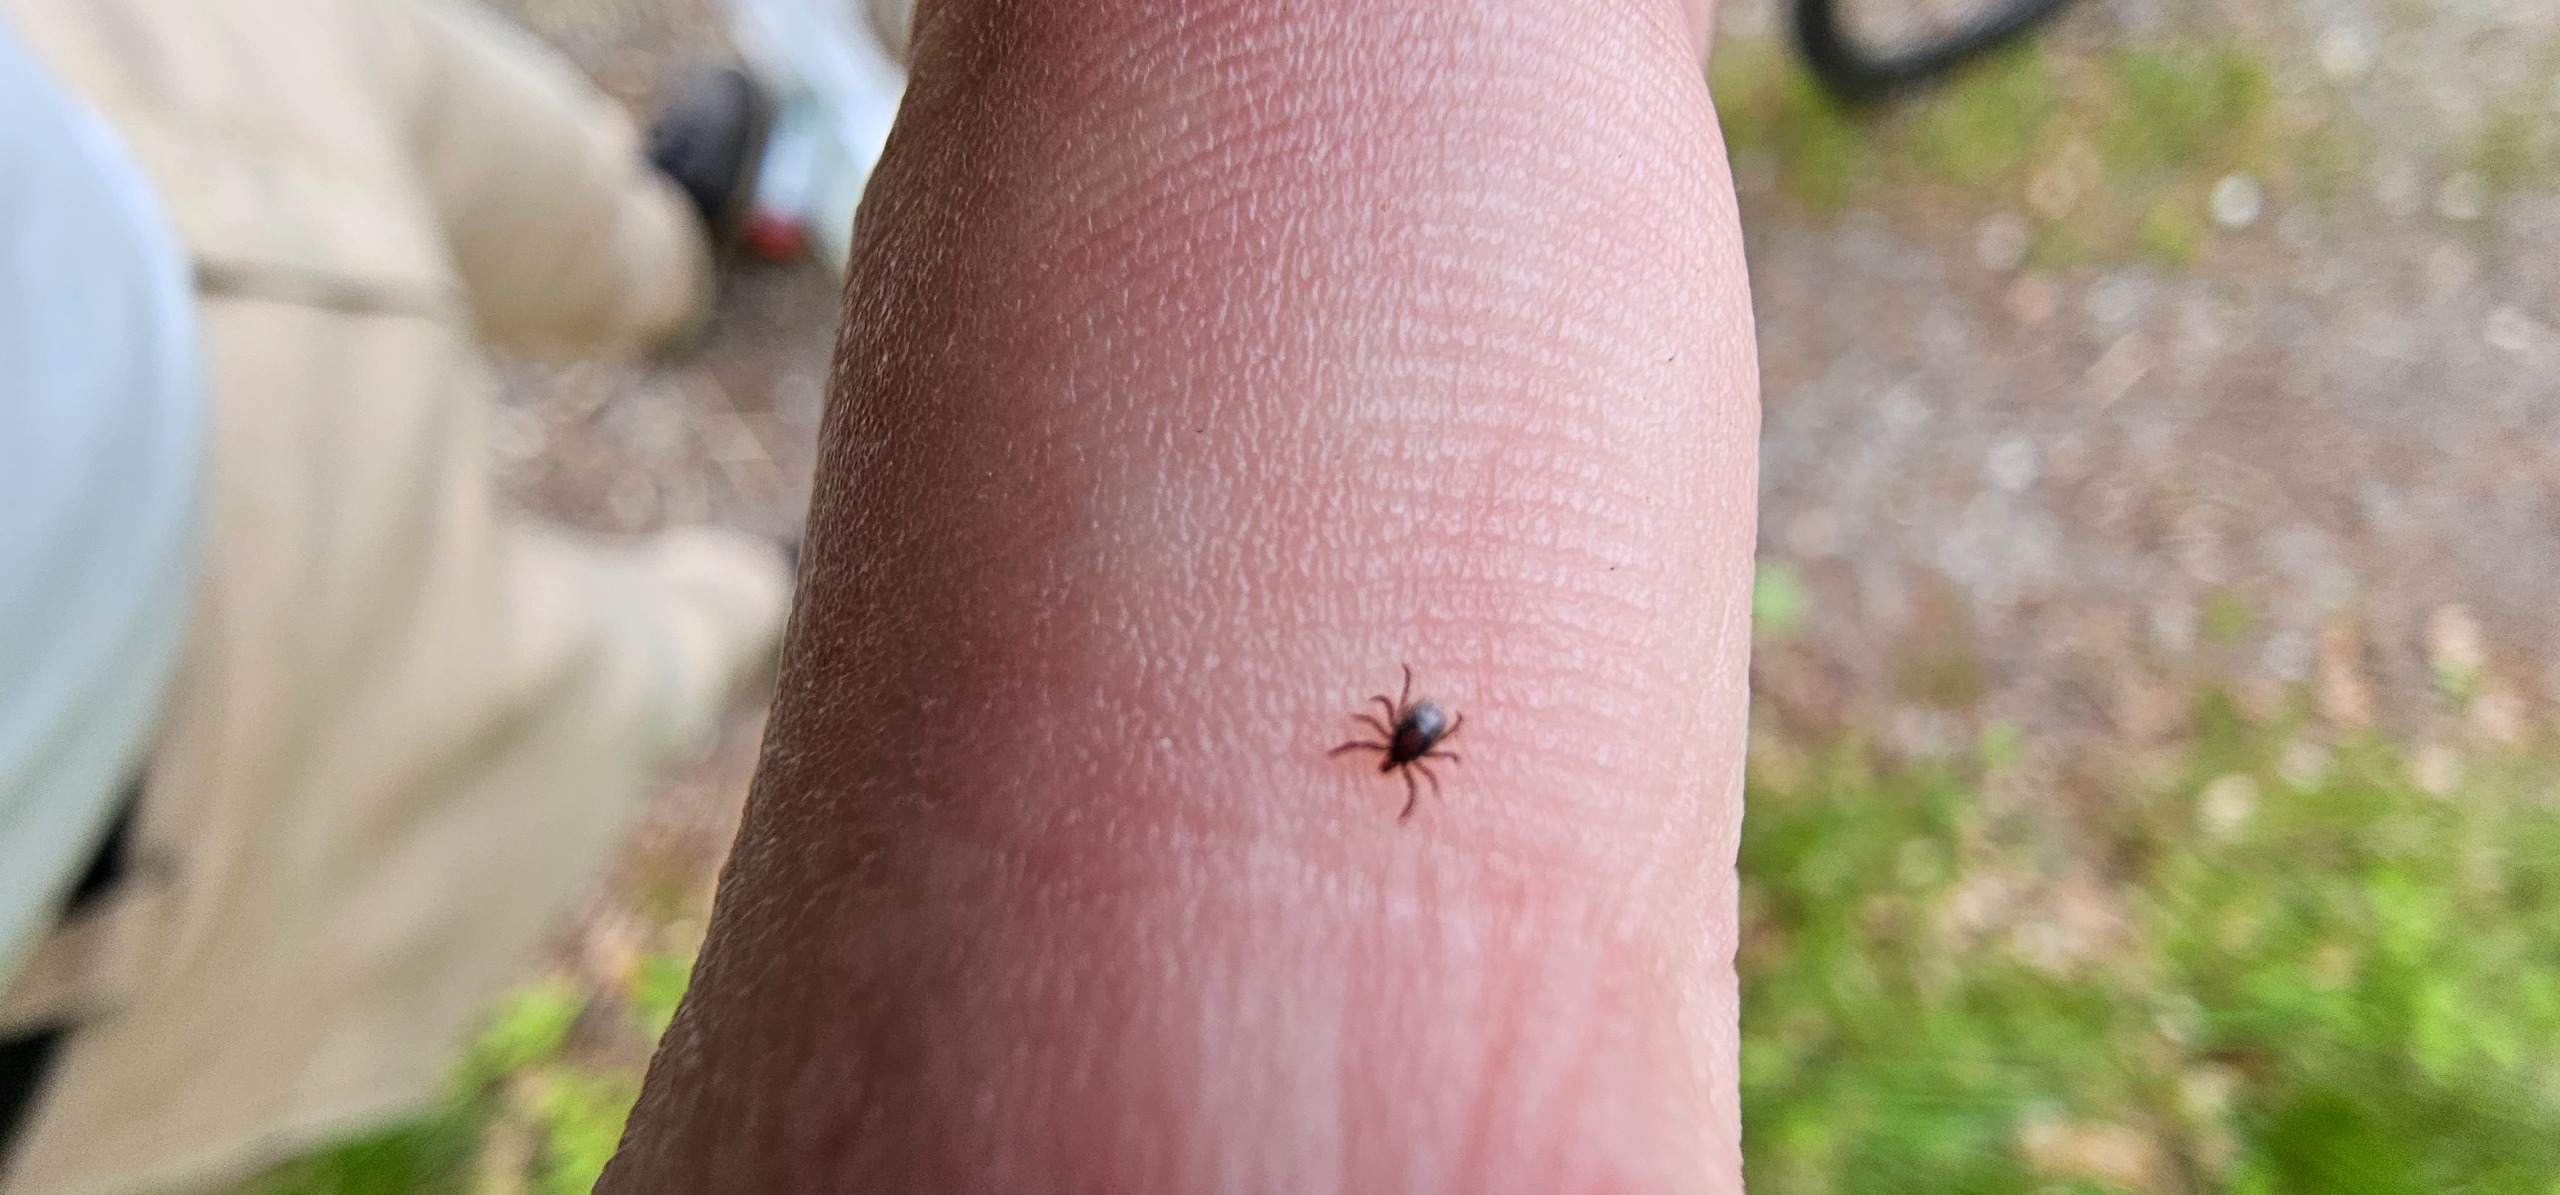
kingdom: Animalia
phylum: Arthropoda
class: Arachnida
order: Ixodida
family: Ixodidae
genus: Ixodes
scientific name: Ixodes ricinus
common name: Skovflåt
